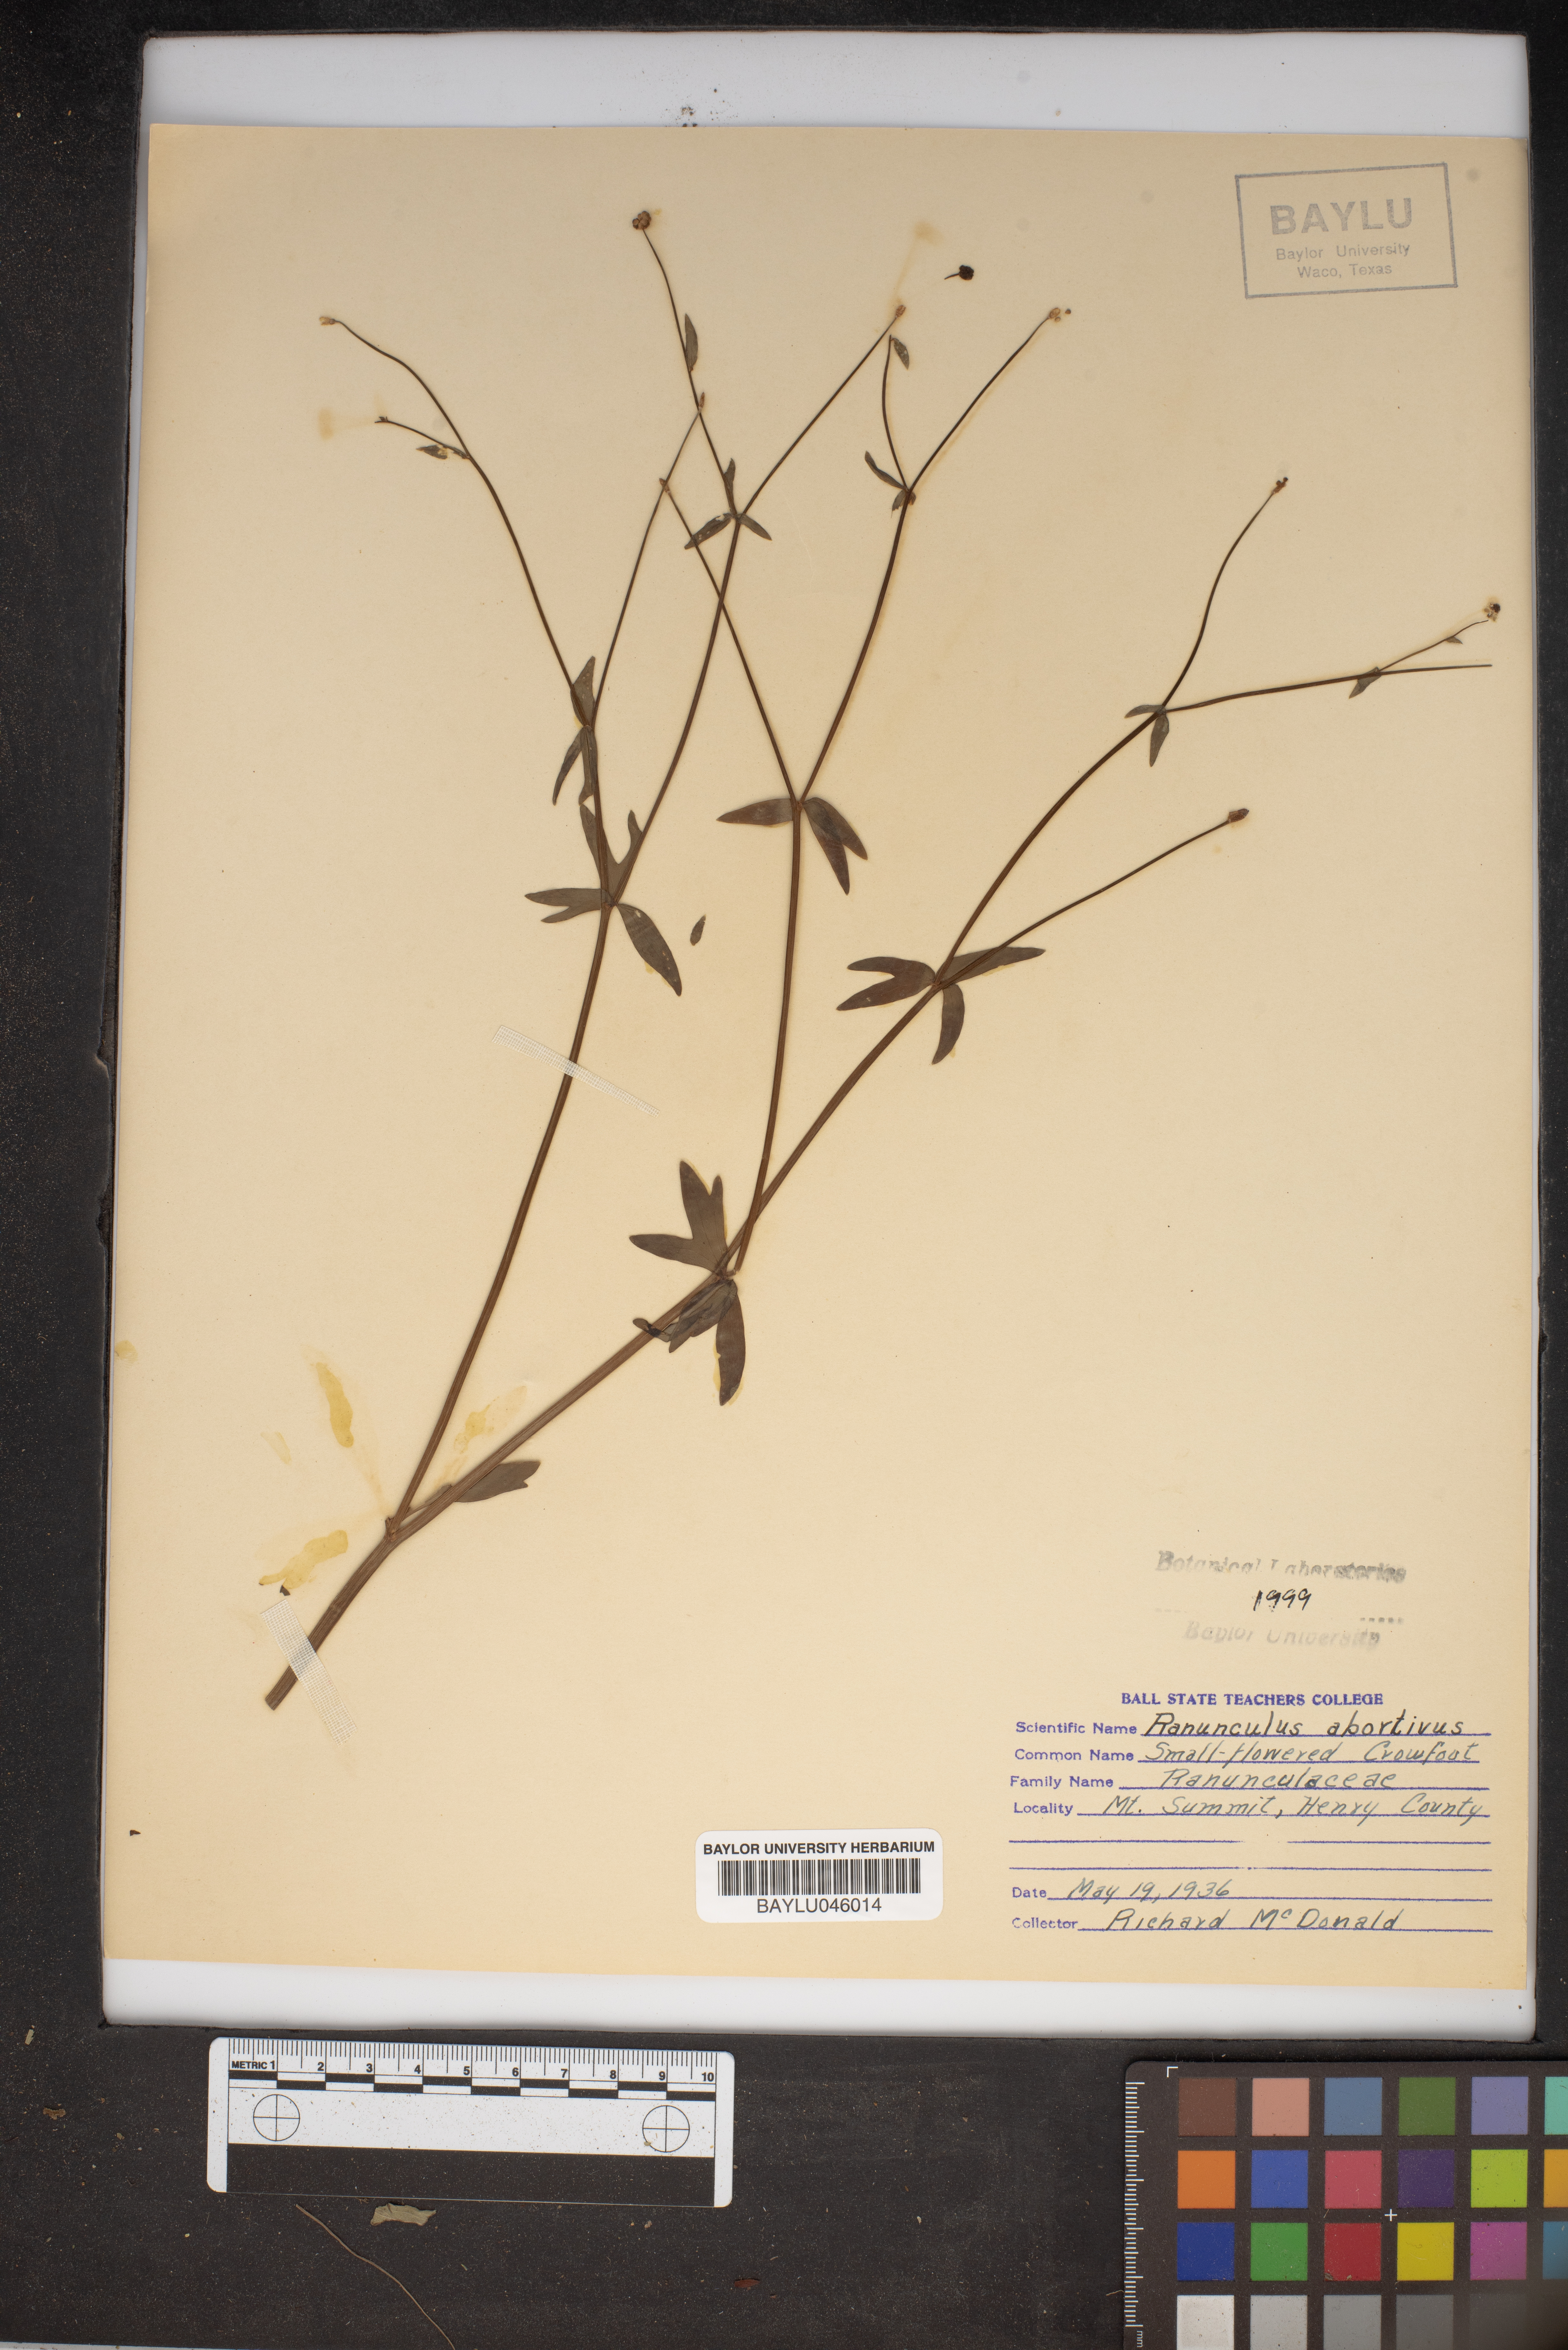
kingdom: Plantae
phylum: Tracheophyta
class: Magnoliopsida
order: Ranunculales
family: Ranunculaceae
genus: Ranunculus
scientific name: Ranunculus abortivus
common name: Early wood buttercup
